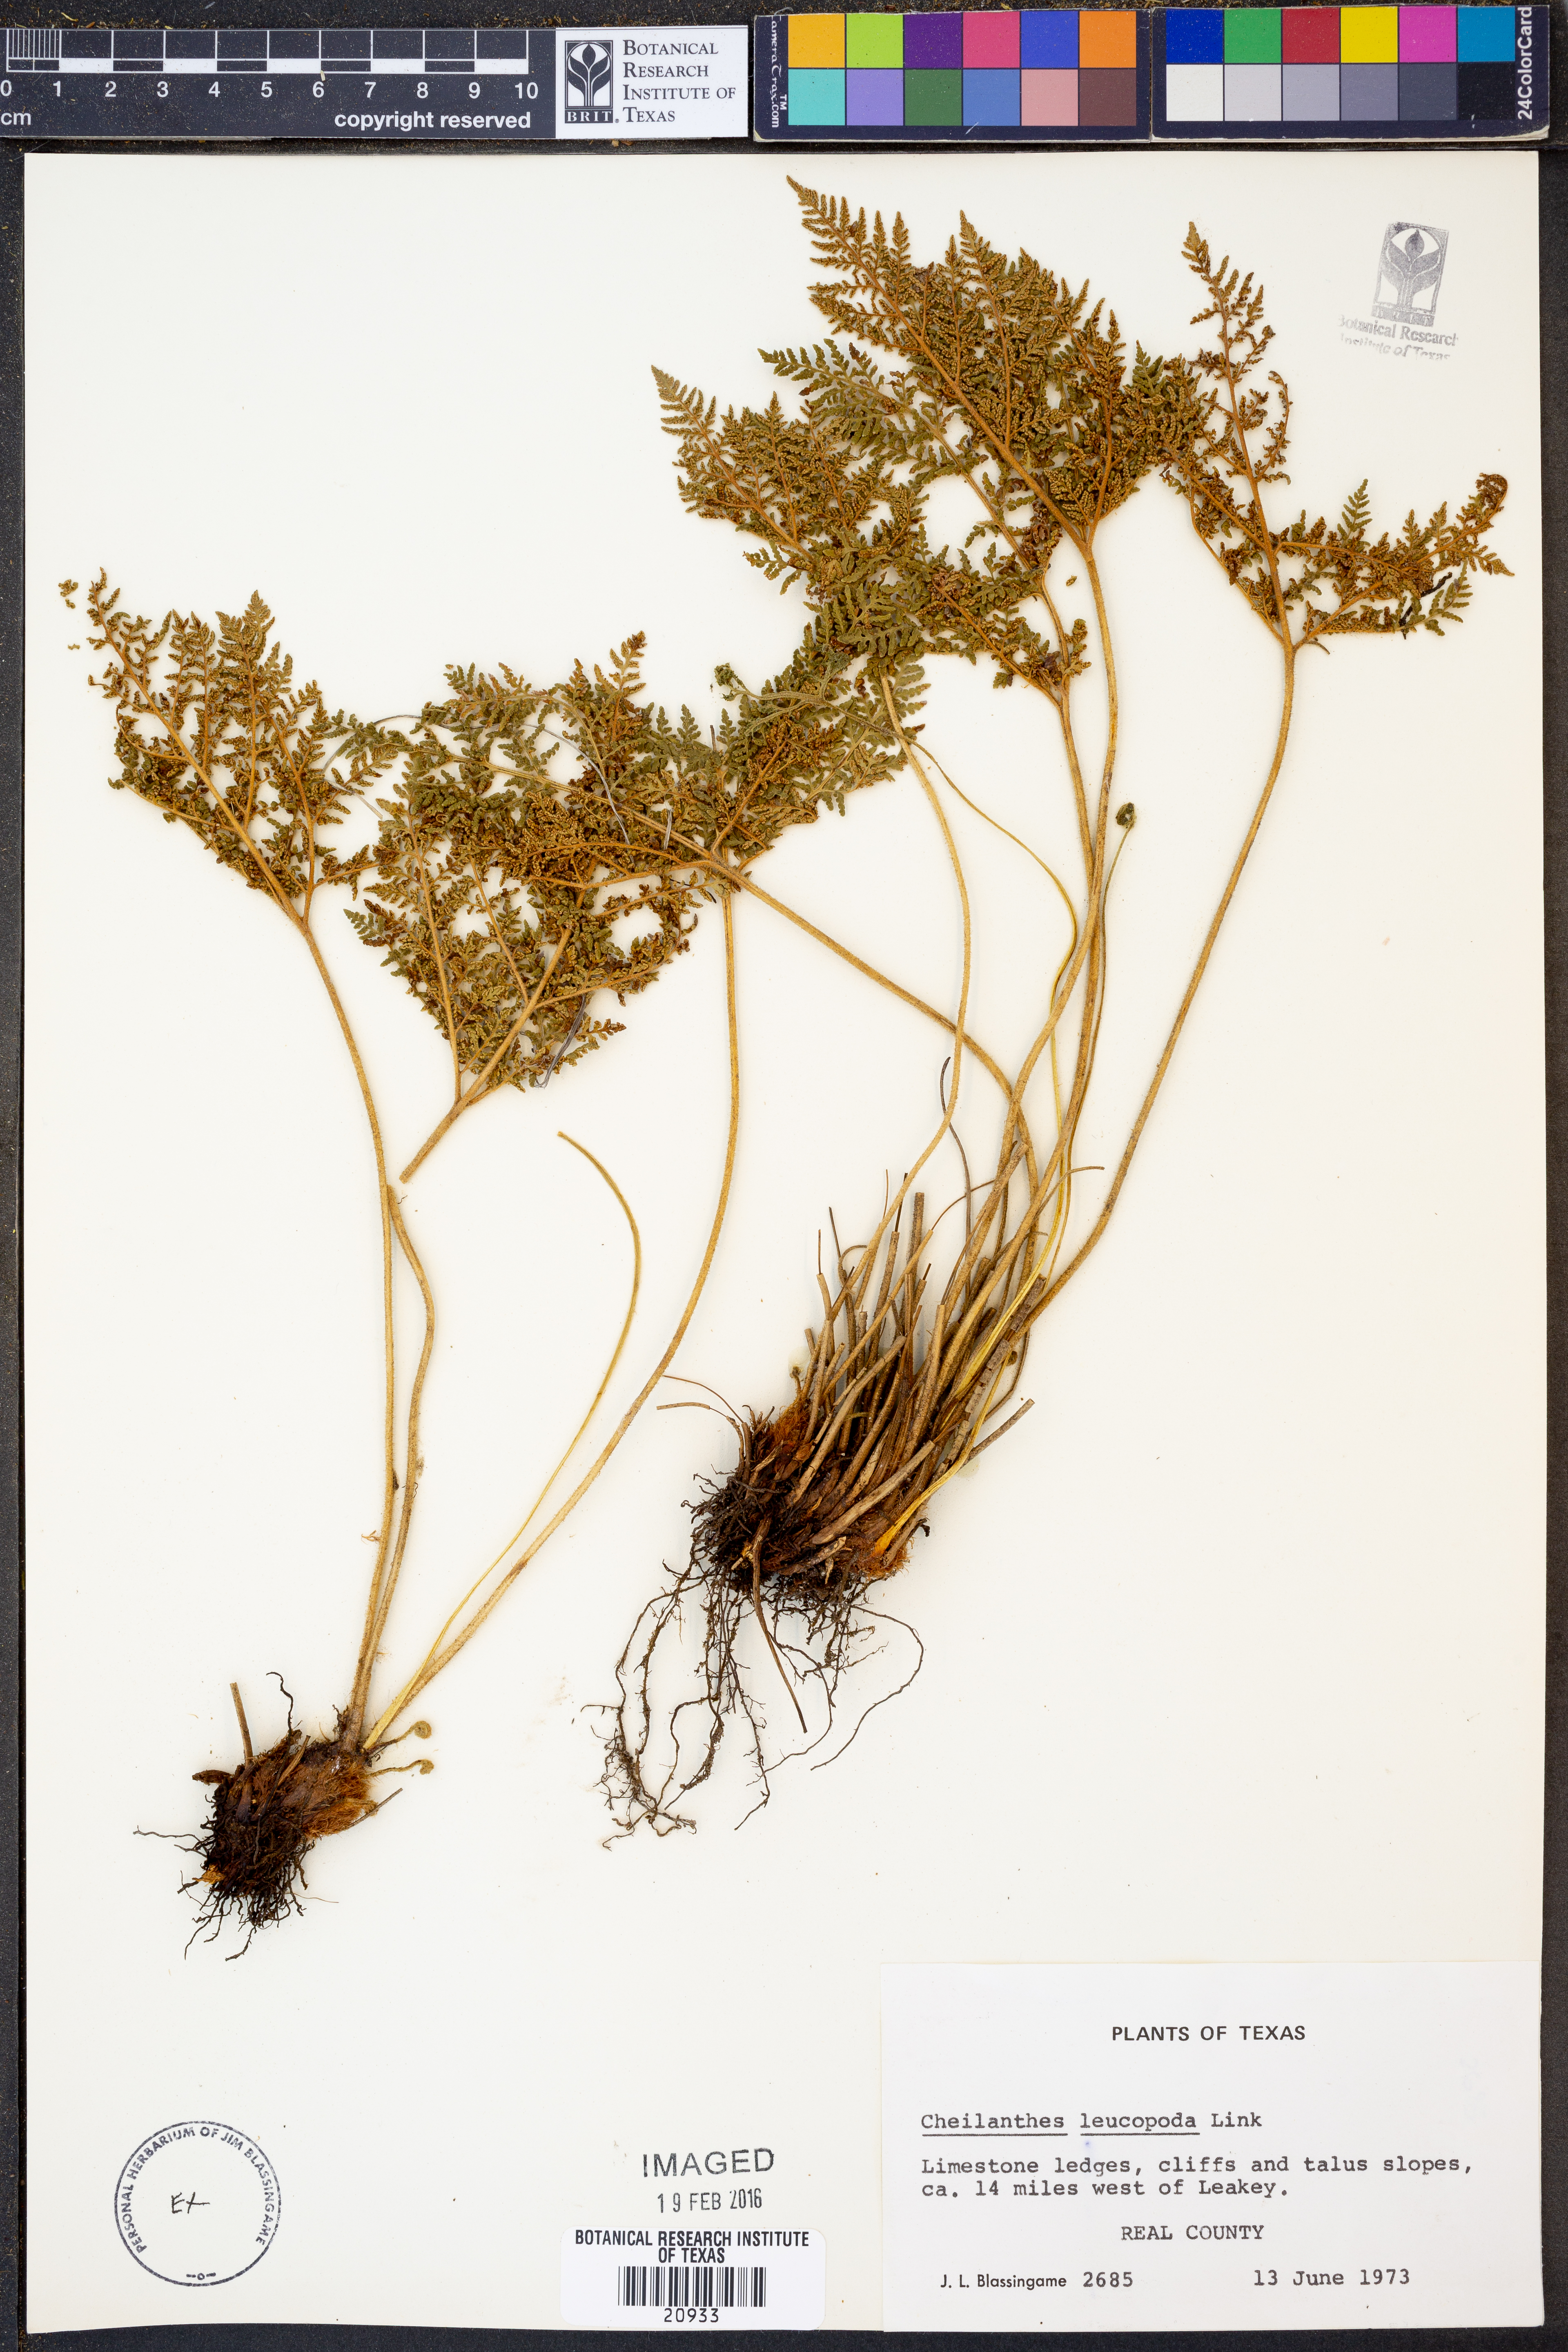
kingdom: Plantae
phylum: Tracheophyta
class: Polypodiopsida
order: Polypodiales
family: Pteridaceae
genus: Cheilanthes
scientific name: Cheilanthes leucopoda
